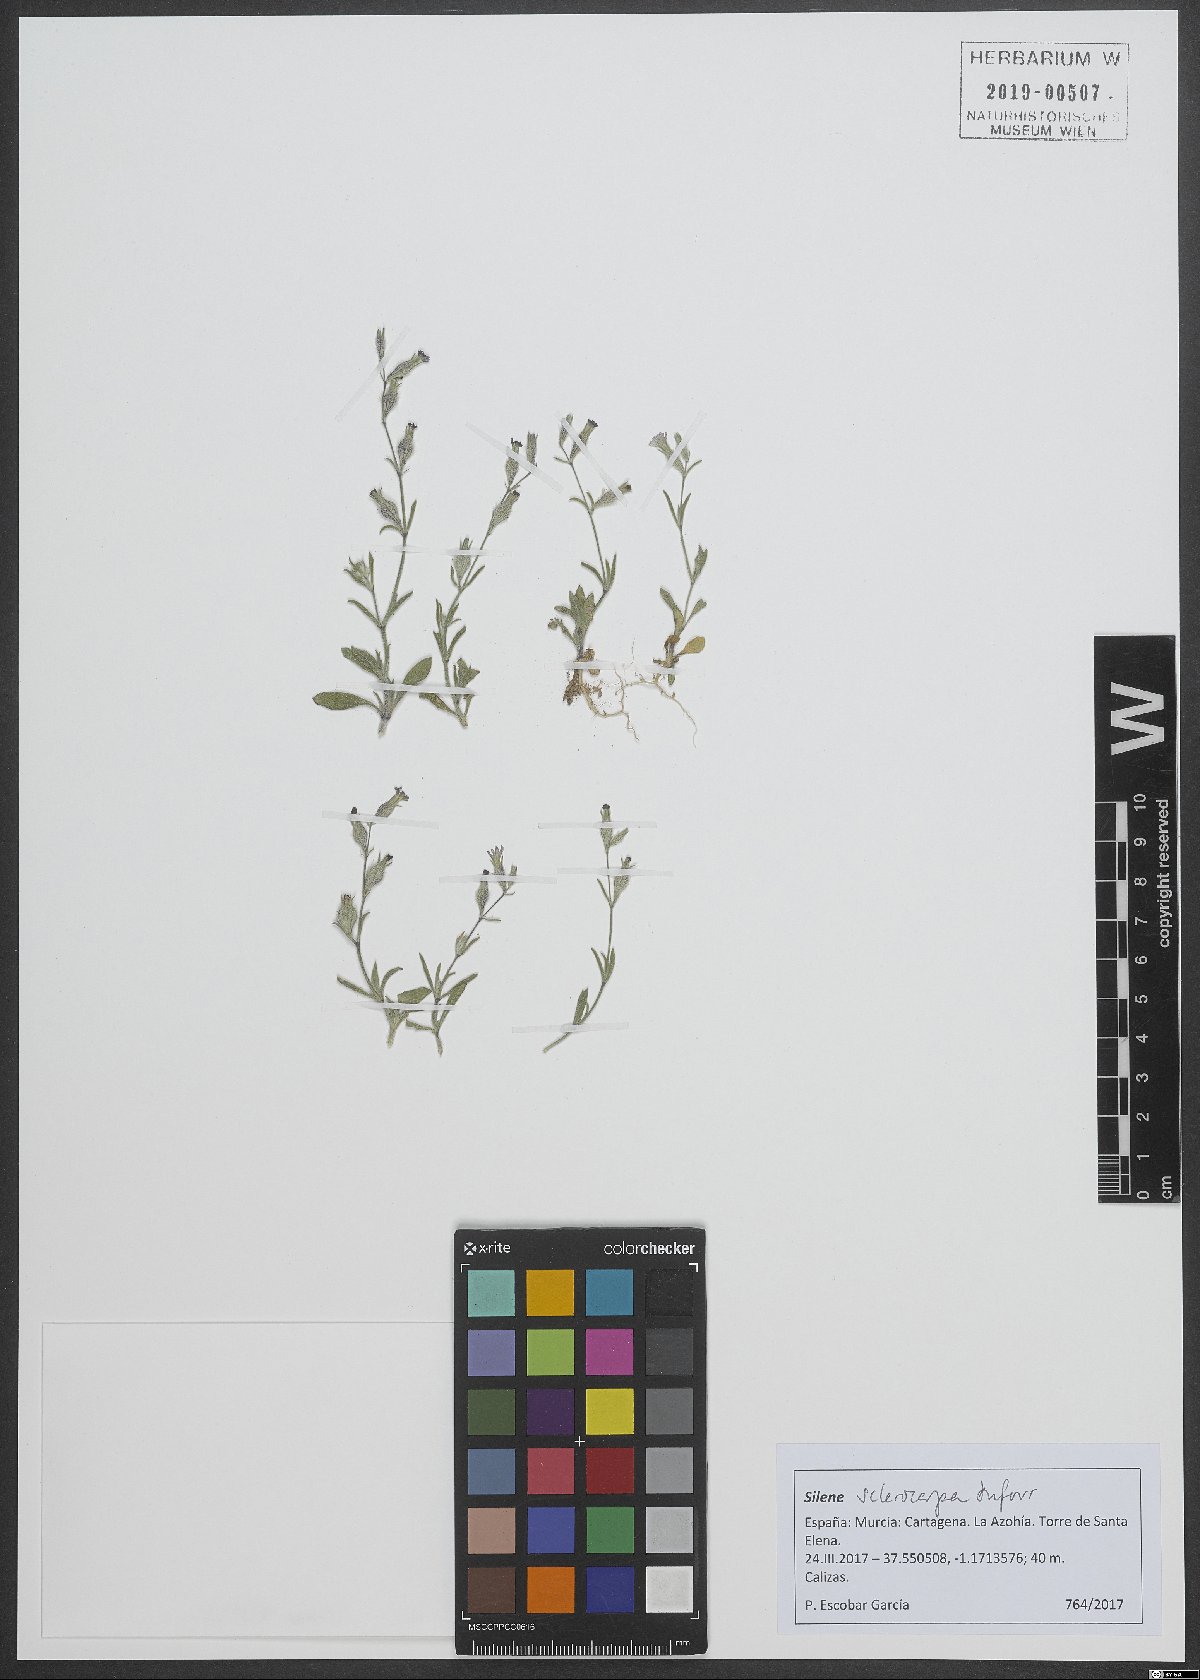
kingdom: Plantae
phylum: Tracheophyta
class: Magnoliopsida
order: Caryophyllales
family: Caryophyllaceae
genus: Silene
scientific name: Silene sclerocarpa
